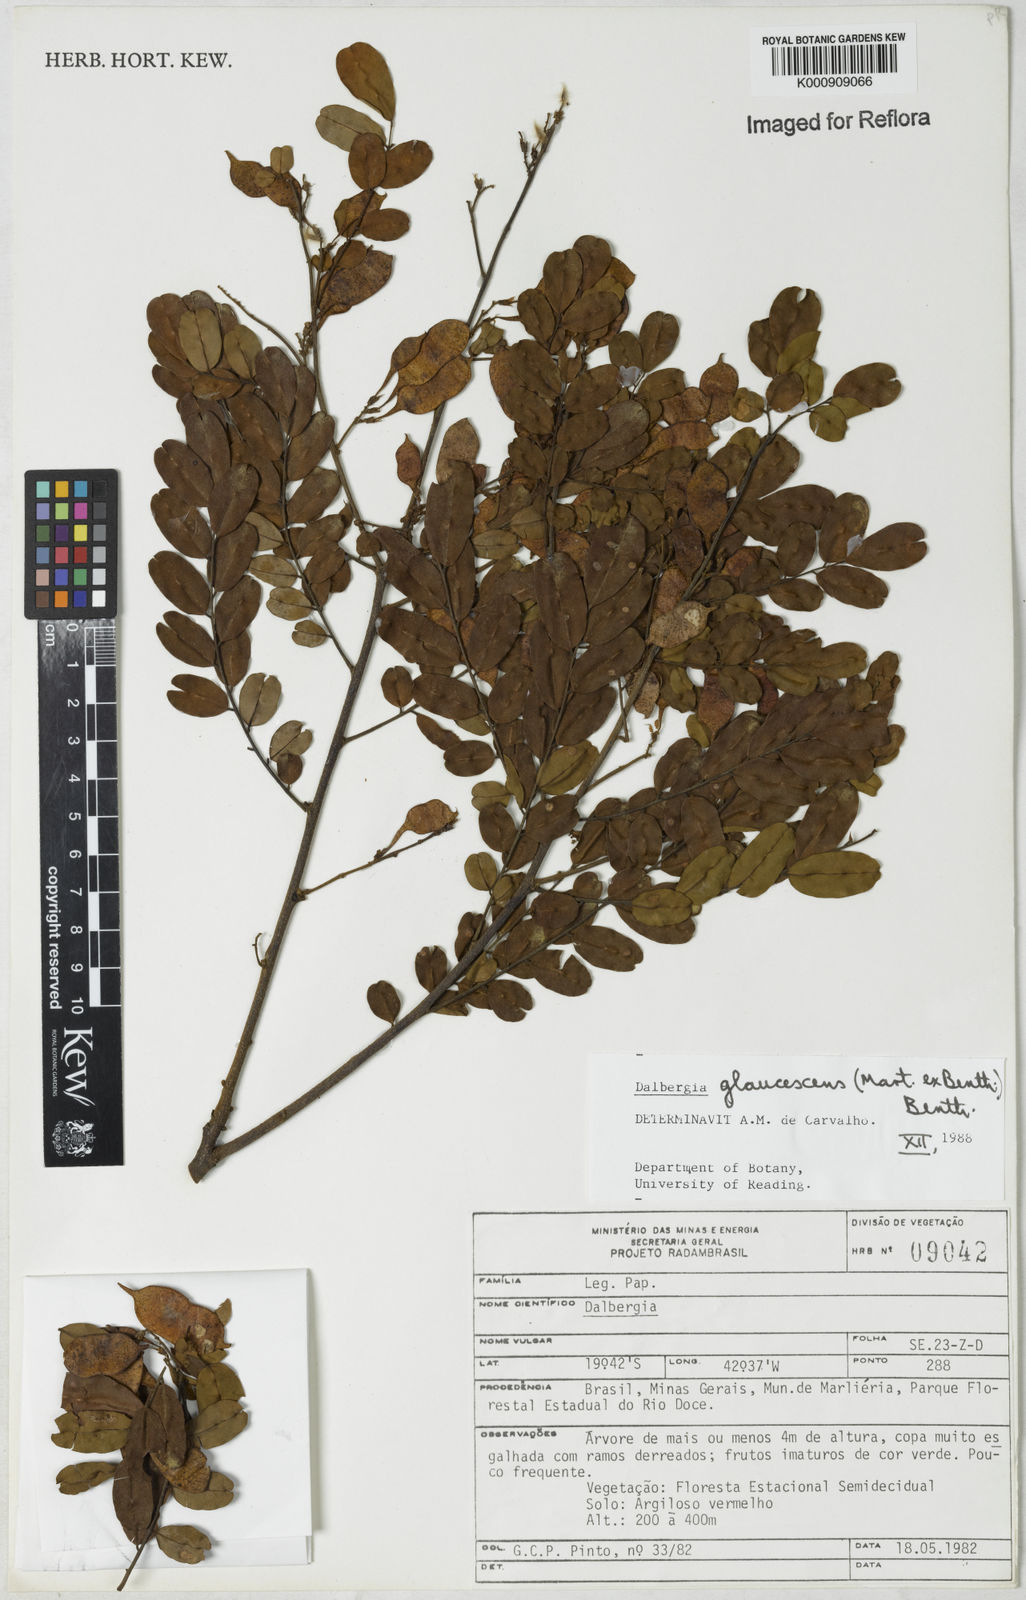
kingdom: Plantae
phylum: Tracheophyta
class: Magnoliopsida
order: Fabales
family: Fabaceae
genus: Dalbergia
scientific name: Dalbergia glaucescens
